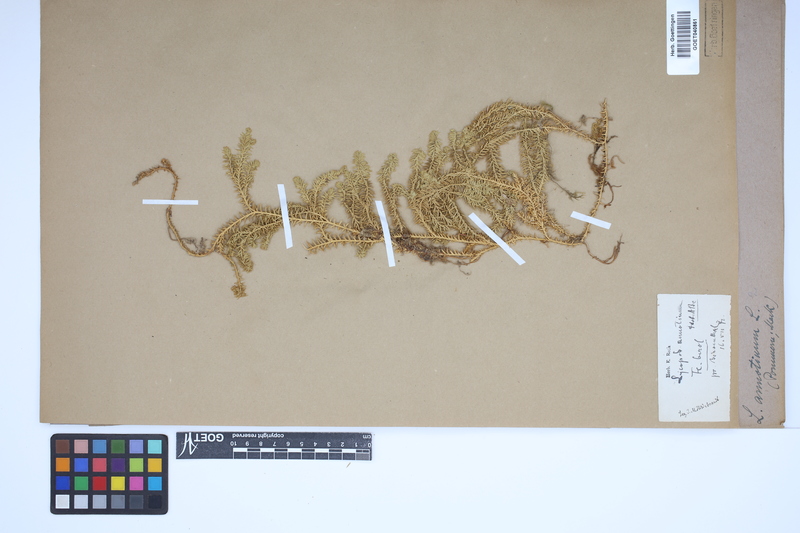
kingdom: Plantae
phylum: Tracheophyta
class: Lycopodiopsida
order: Lycopodiales
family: Lycopodiaceae
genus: Spinulum
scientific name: Spinulum annotinum
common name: Interrupted club-moss
